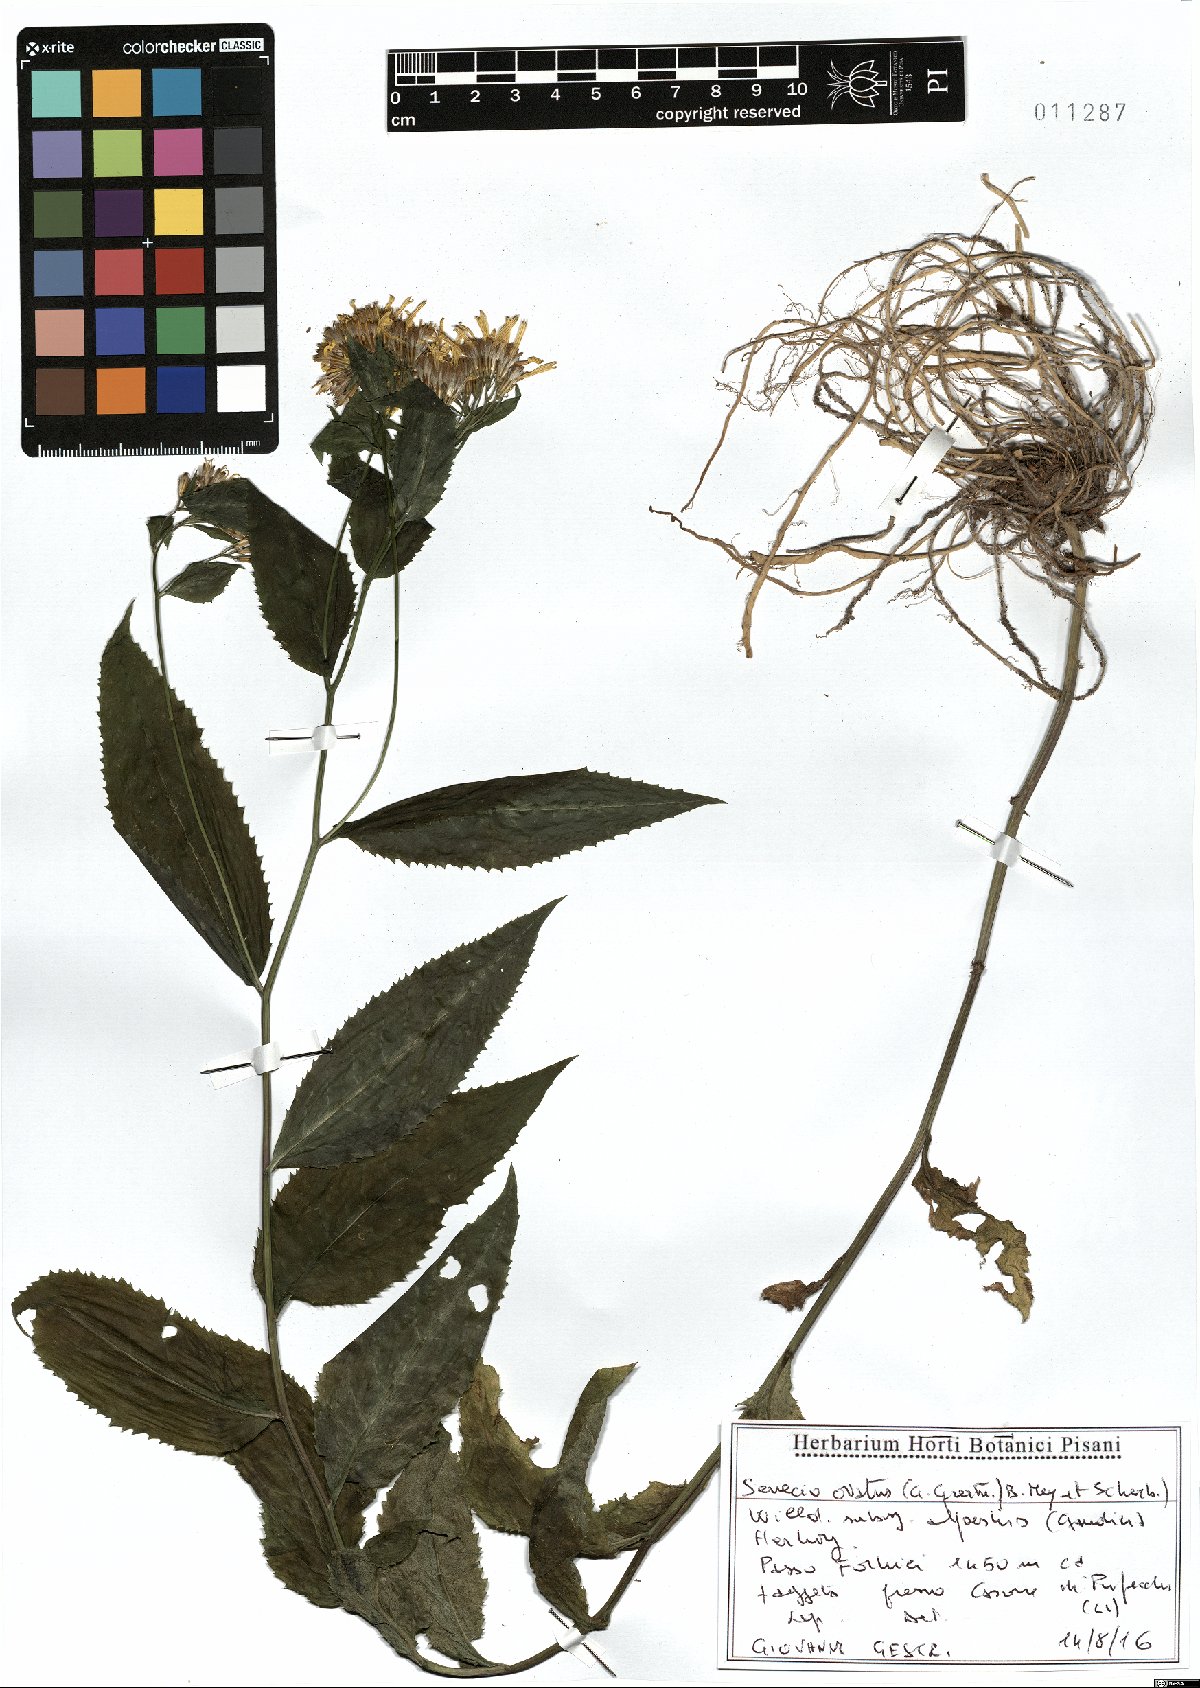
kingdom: Plantae
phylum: Tracheophyta
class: Magnoliopsida
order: Asterales
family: Asteraceae
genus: Senecio
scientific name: Senecio ovatus
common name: Wood ragwort
